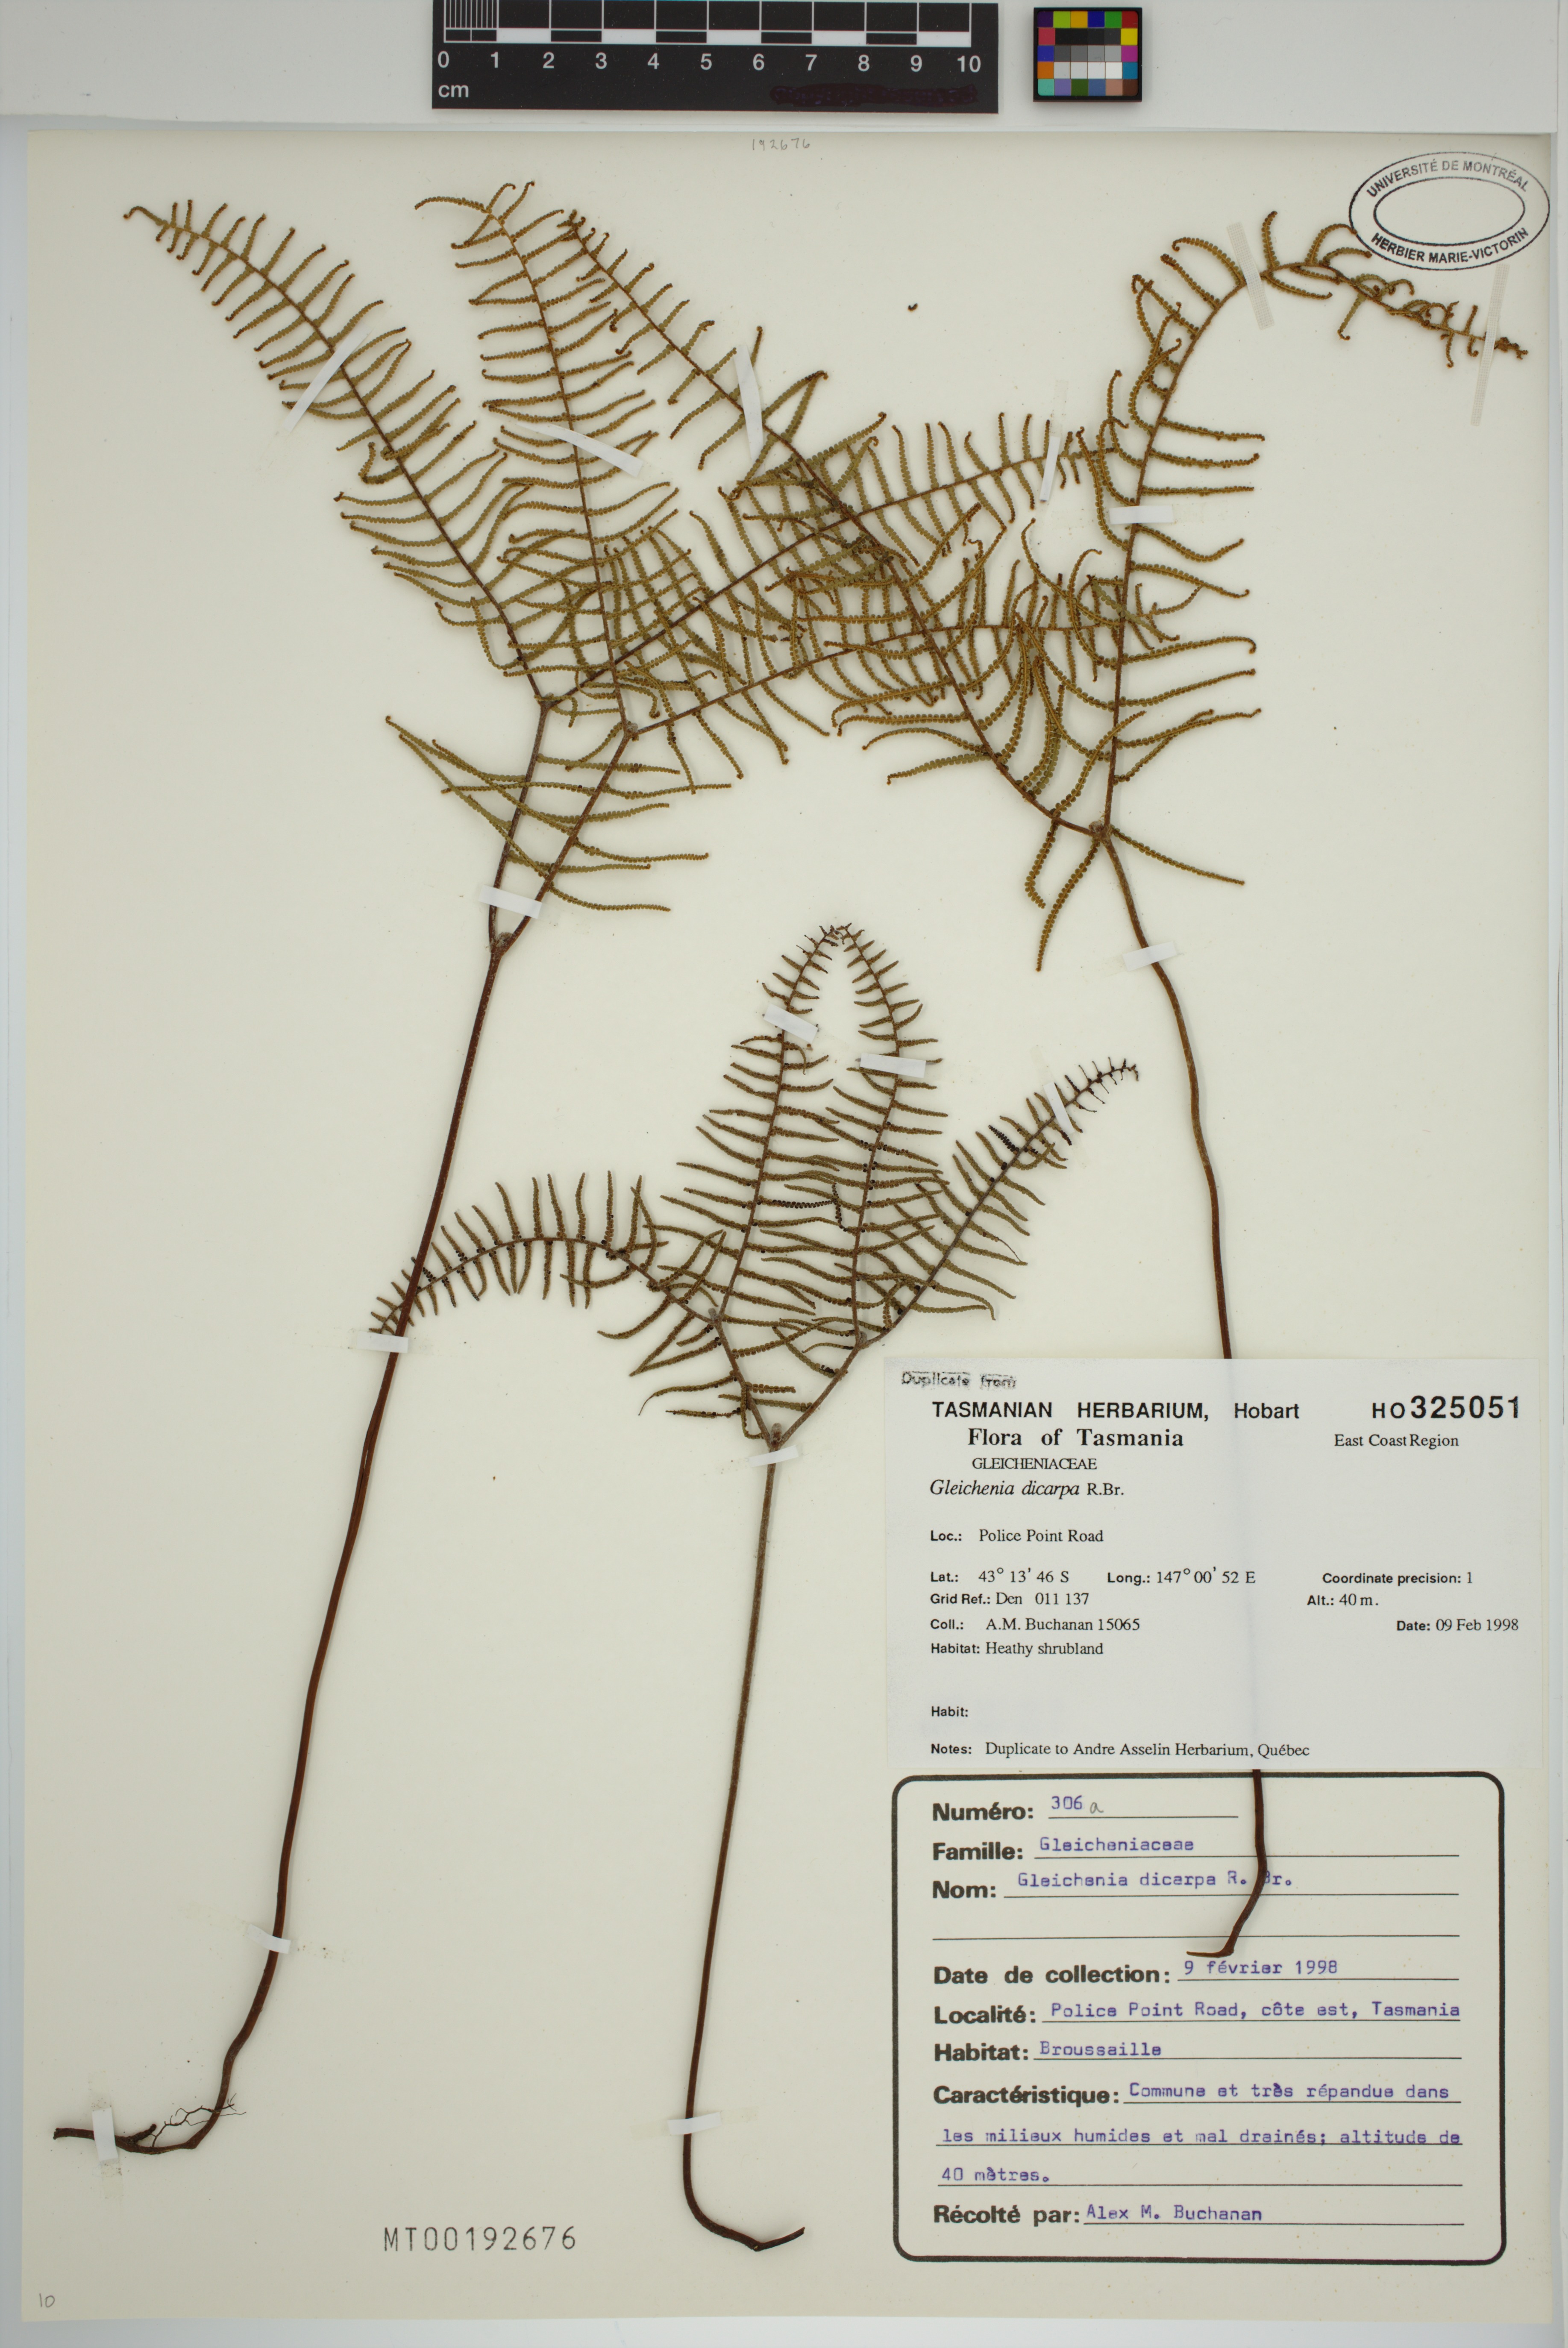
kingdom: Plantae
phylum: Tracheophyta
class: Polypodiopsida
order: Gleicheniales
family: Gleicheniaceae
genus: Gleichenia
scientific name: Gleichenia dicarpa
